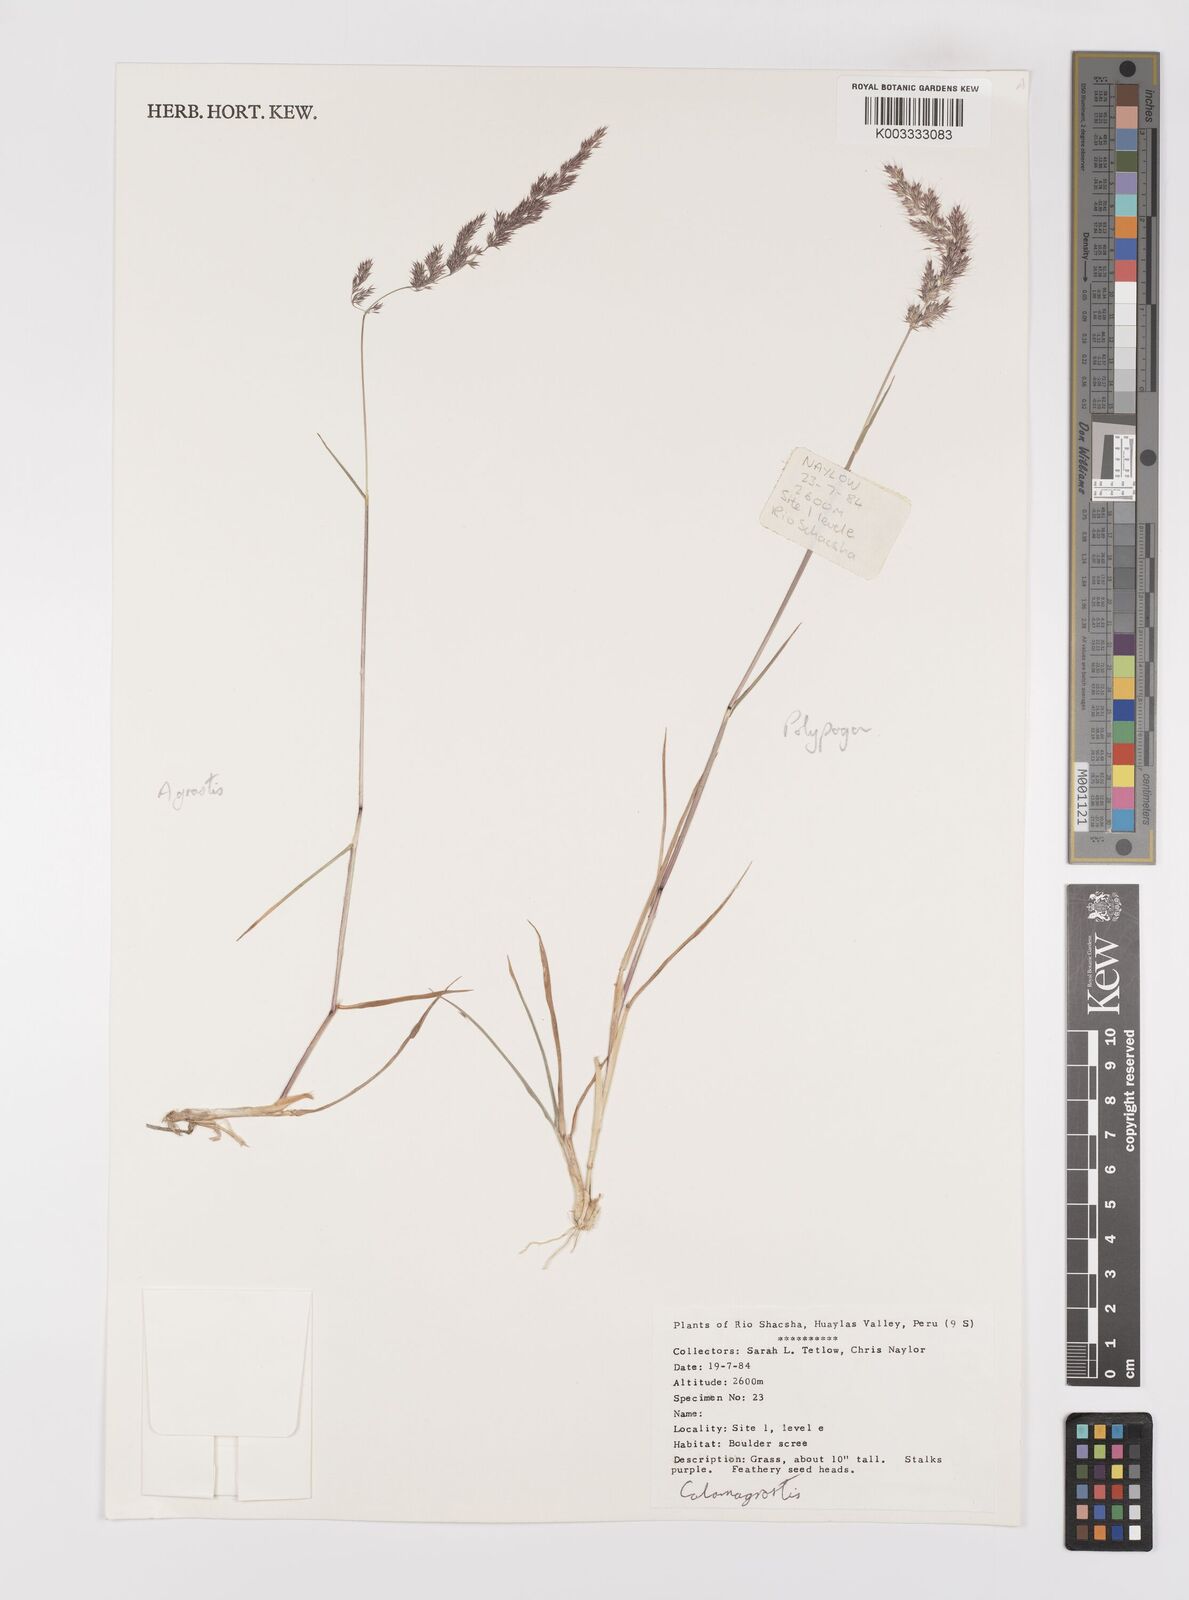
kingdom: Plantae
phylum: Tracheophyta
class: Liliopsida
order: Poales
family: Poaceae
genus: Polypogon
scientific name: Polypogon interruptus
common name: Ditch polypogon
